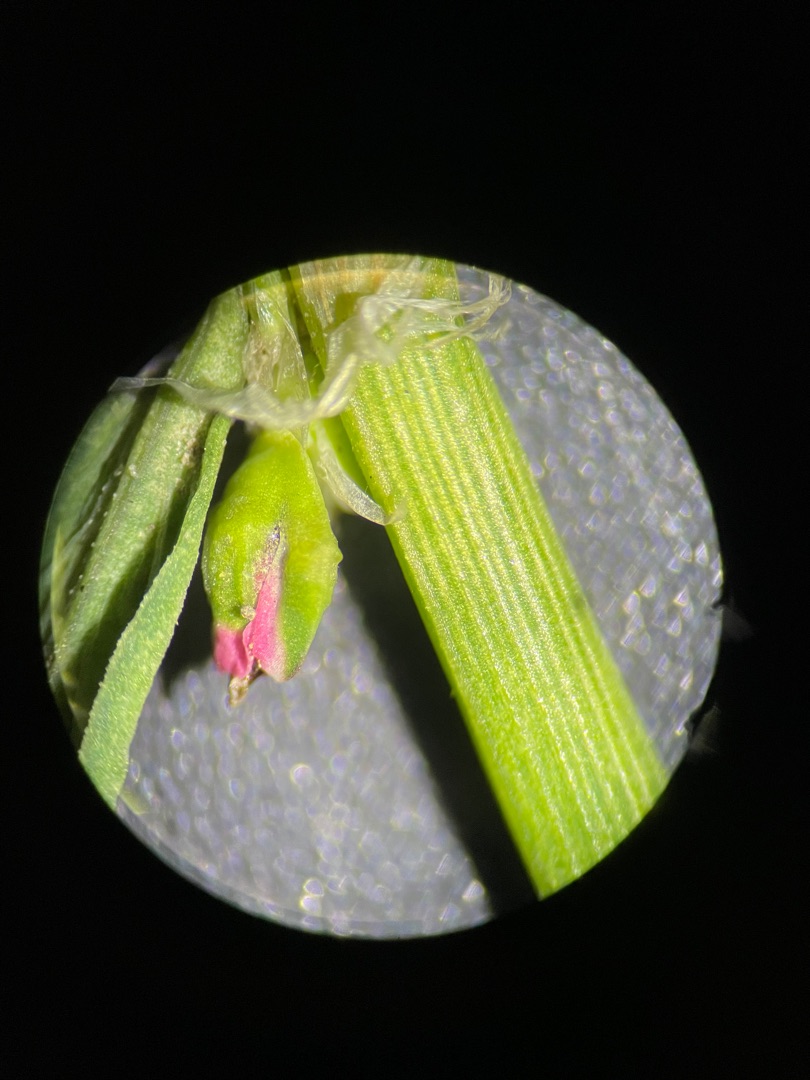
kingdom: Plantae
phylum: Tracheophyta
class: Magnoliopsida
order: Caryophyllales
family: Polygonaceae
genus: Polygonum
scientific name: Polygonum arenastrum
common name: Liggende vej-pileurt
